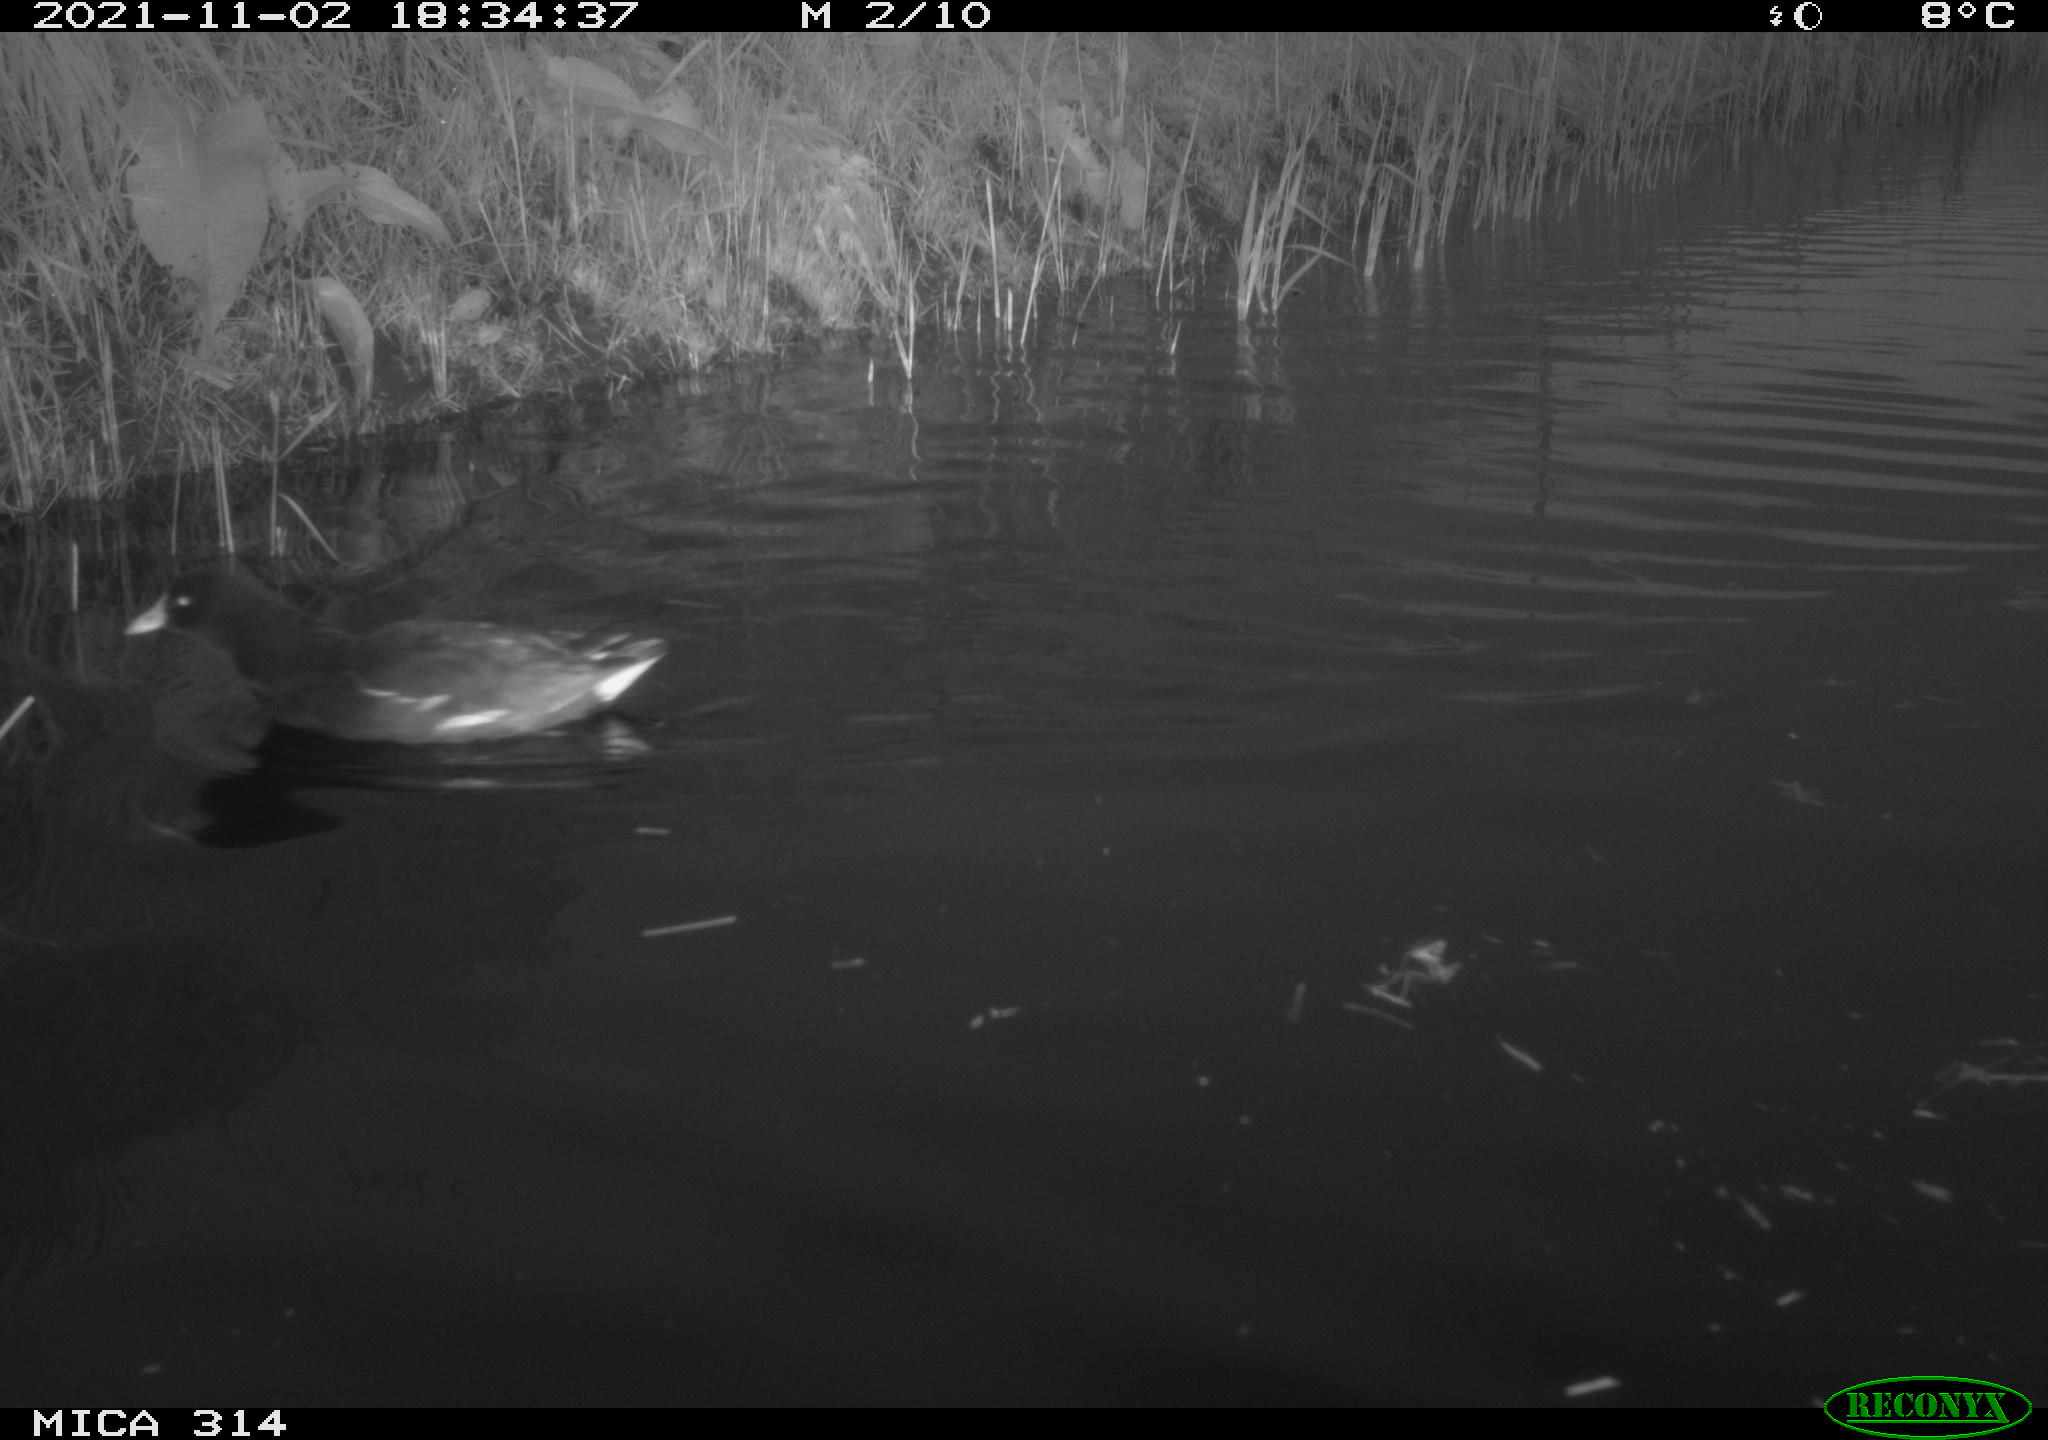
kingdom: Animalia
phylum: Chordata
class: Aves
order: Gruiformes
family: Rallidae
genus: Gallinula
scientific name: Gallinula chloropus
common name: Common moorhen
